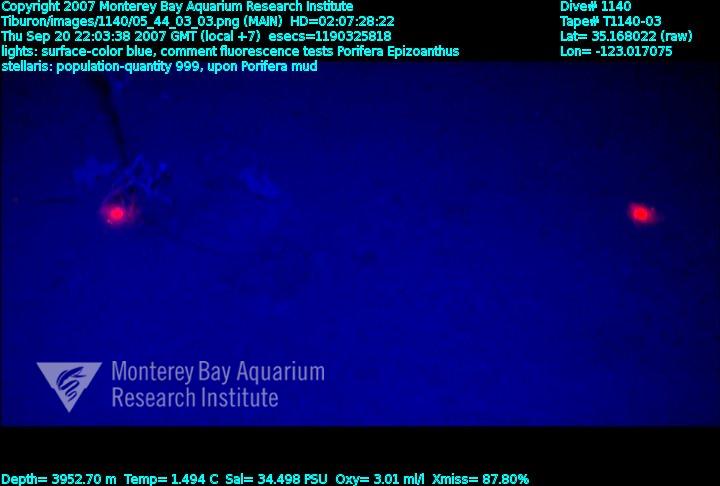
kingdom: Animalia
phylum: Porifera
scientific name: Porifera
